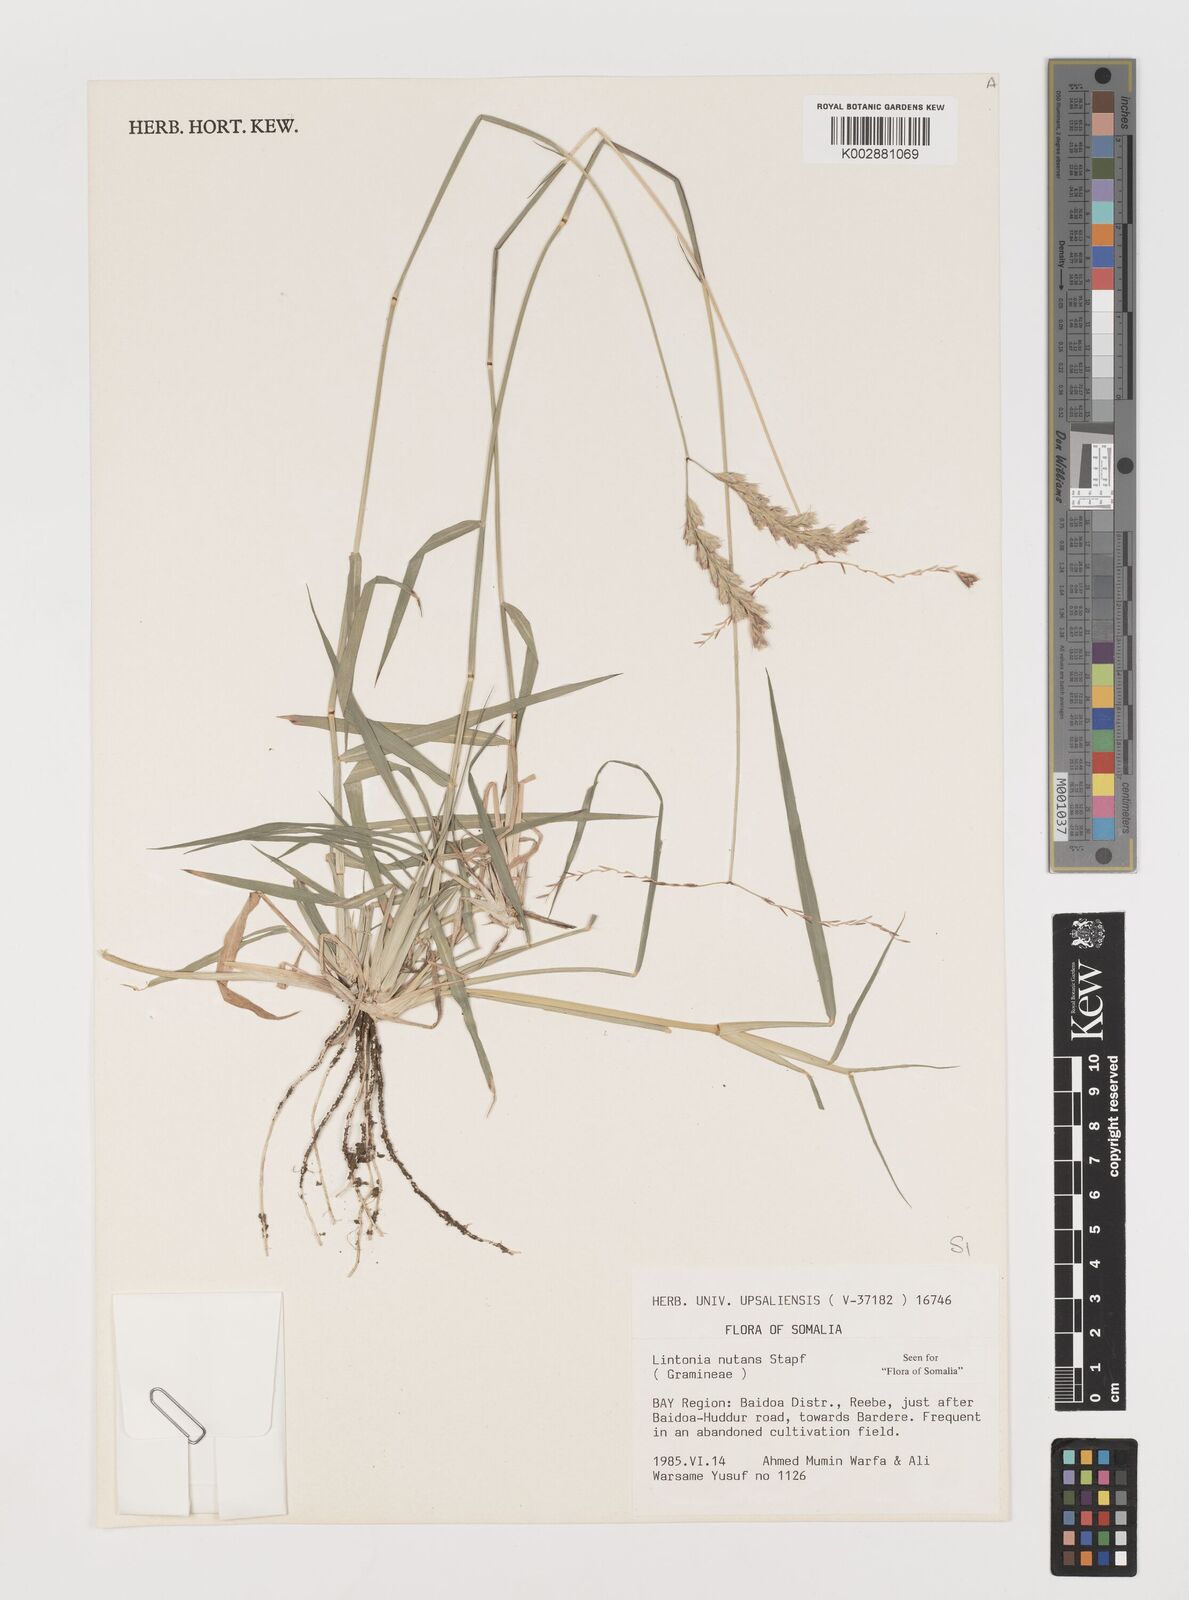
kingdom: Plantae
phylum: Tracheophyta
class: Liliopsida
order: Poales
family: Poaceae
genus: Chloris
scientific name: Chloris nutans
